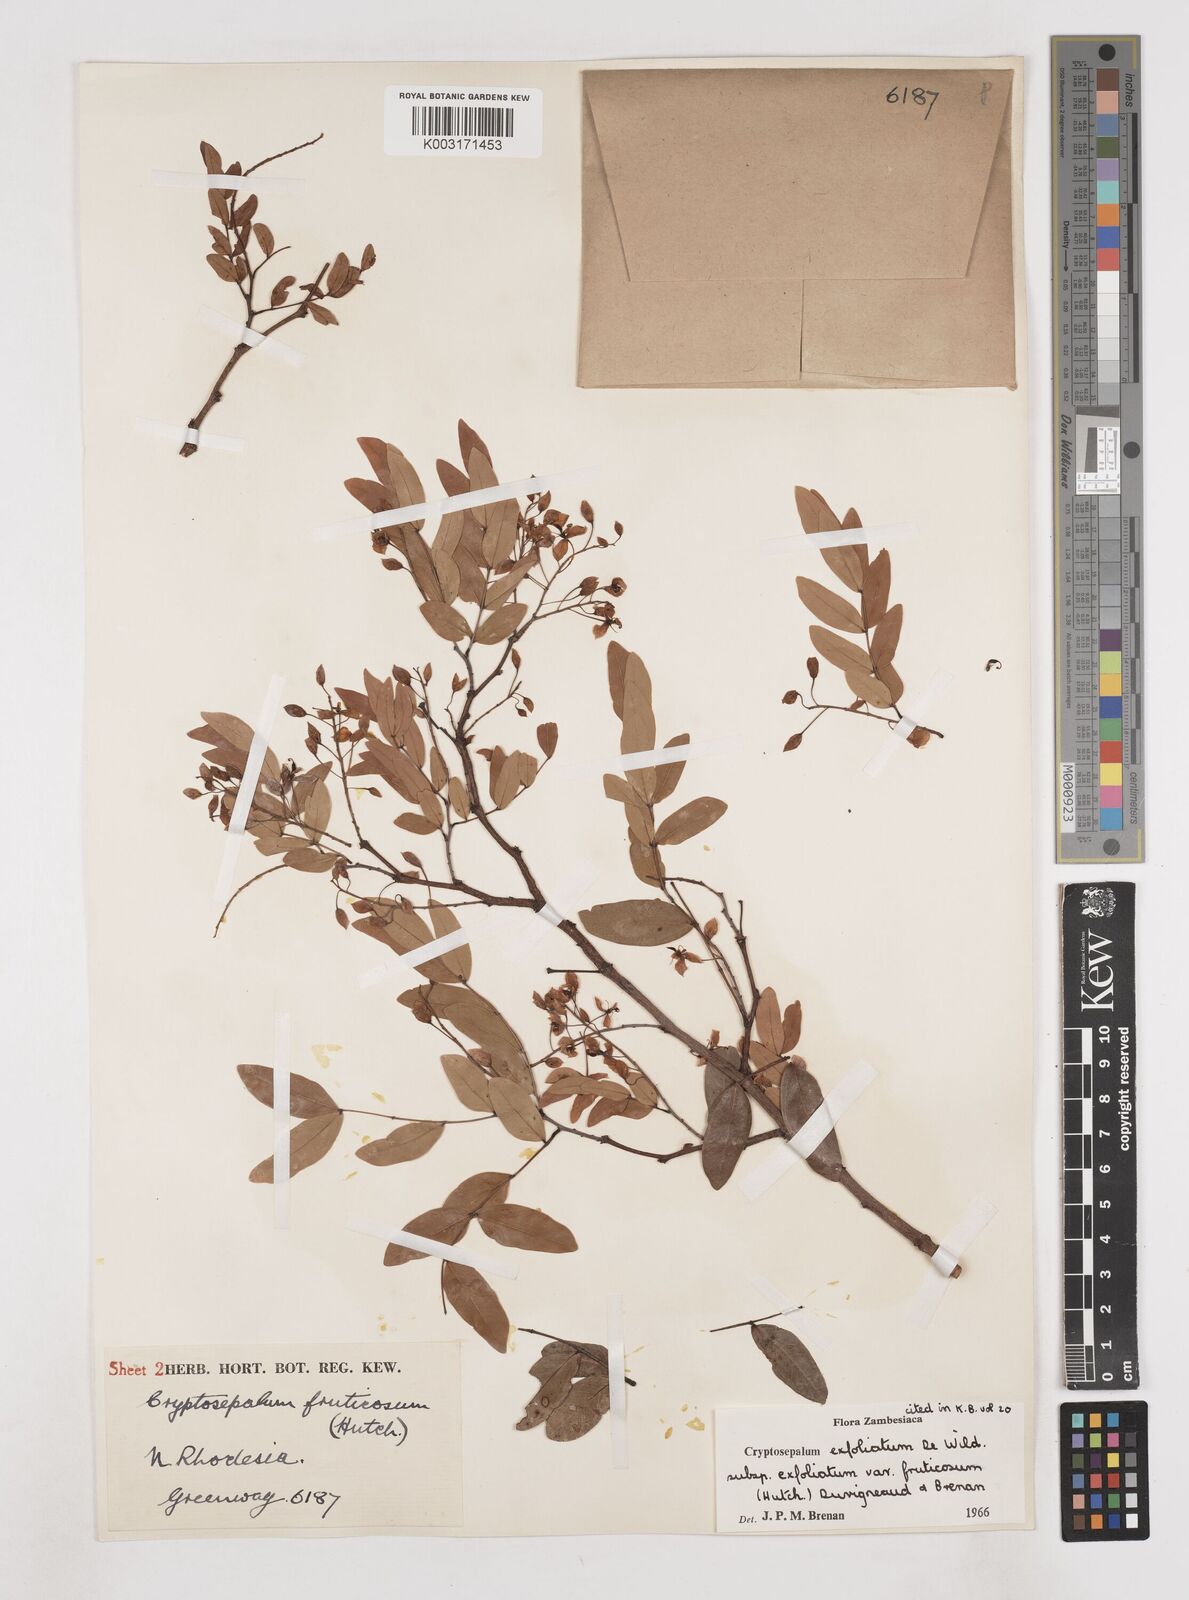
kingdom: Plantae
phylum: Tracheophyta
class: Magnoliopsida
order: Fabales
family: Fabaceae
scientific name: Fabaceae
